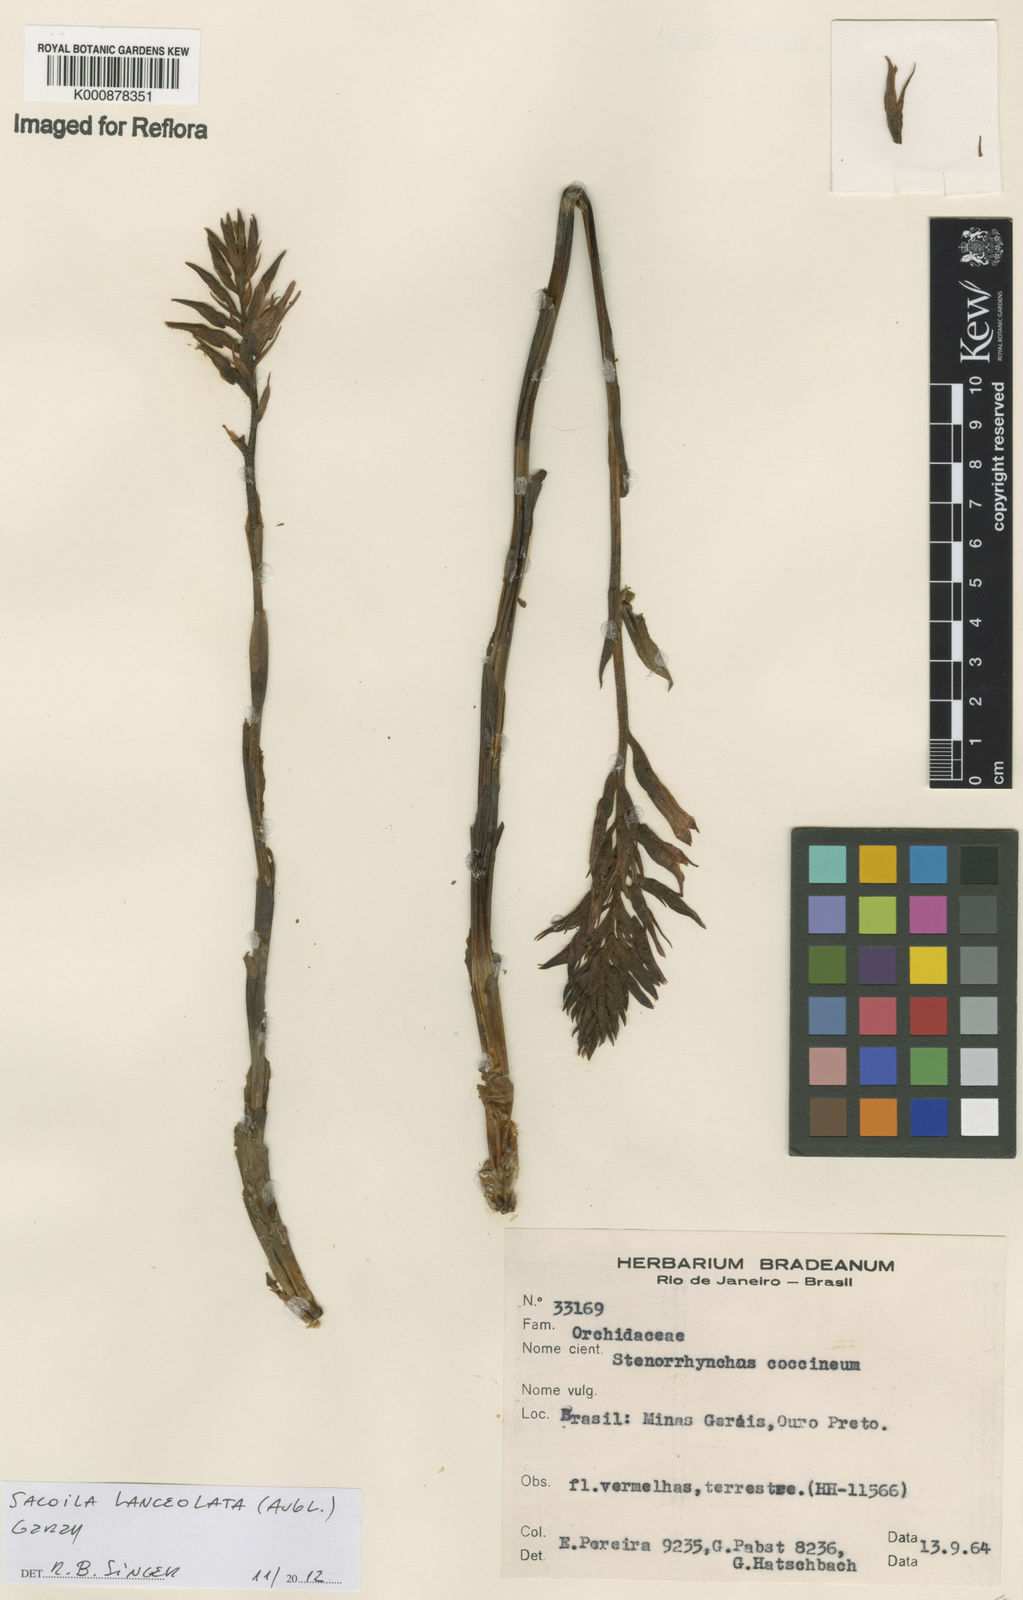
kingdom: Plantae
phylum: Tracheophyta
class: Liliopsida
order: Asparagales
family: Orchidaceae
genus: Sacoila
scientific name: Sacoila lanceolata
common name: Leafless beaked ladiestresses
